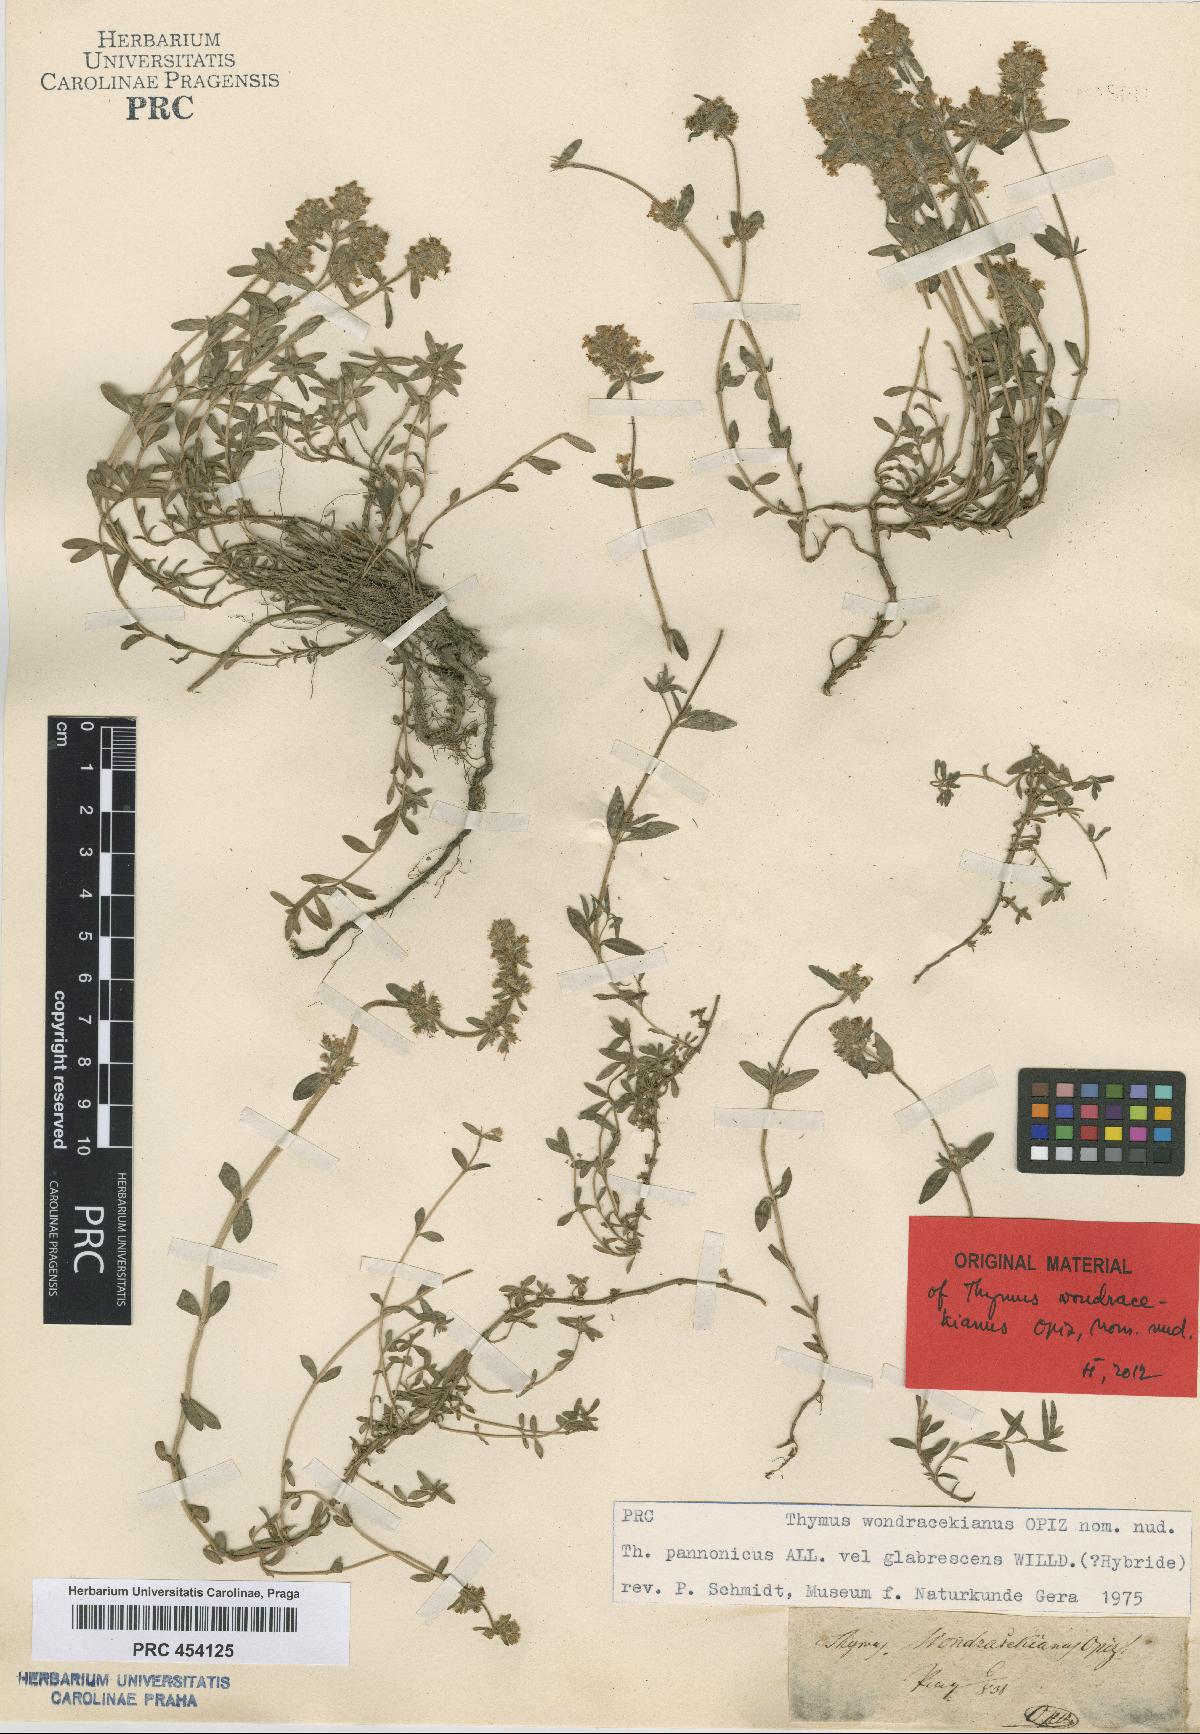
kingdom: Plantae
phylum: Tracheophyta
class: Magnoliopsida
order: Lamiales
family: Lamiaceae
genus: Thymus
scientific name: Thymus serpyllum
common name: Breckland thyme
